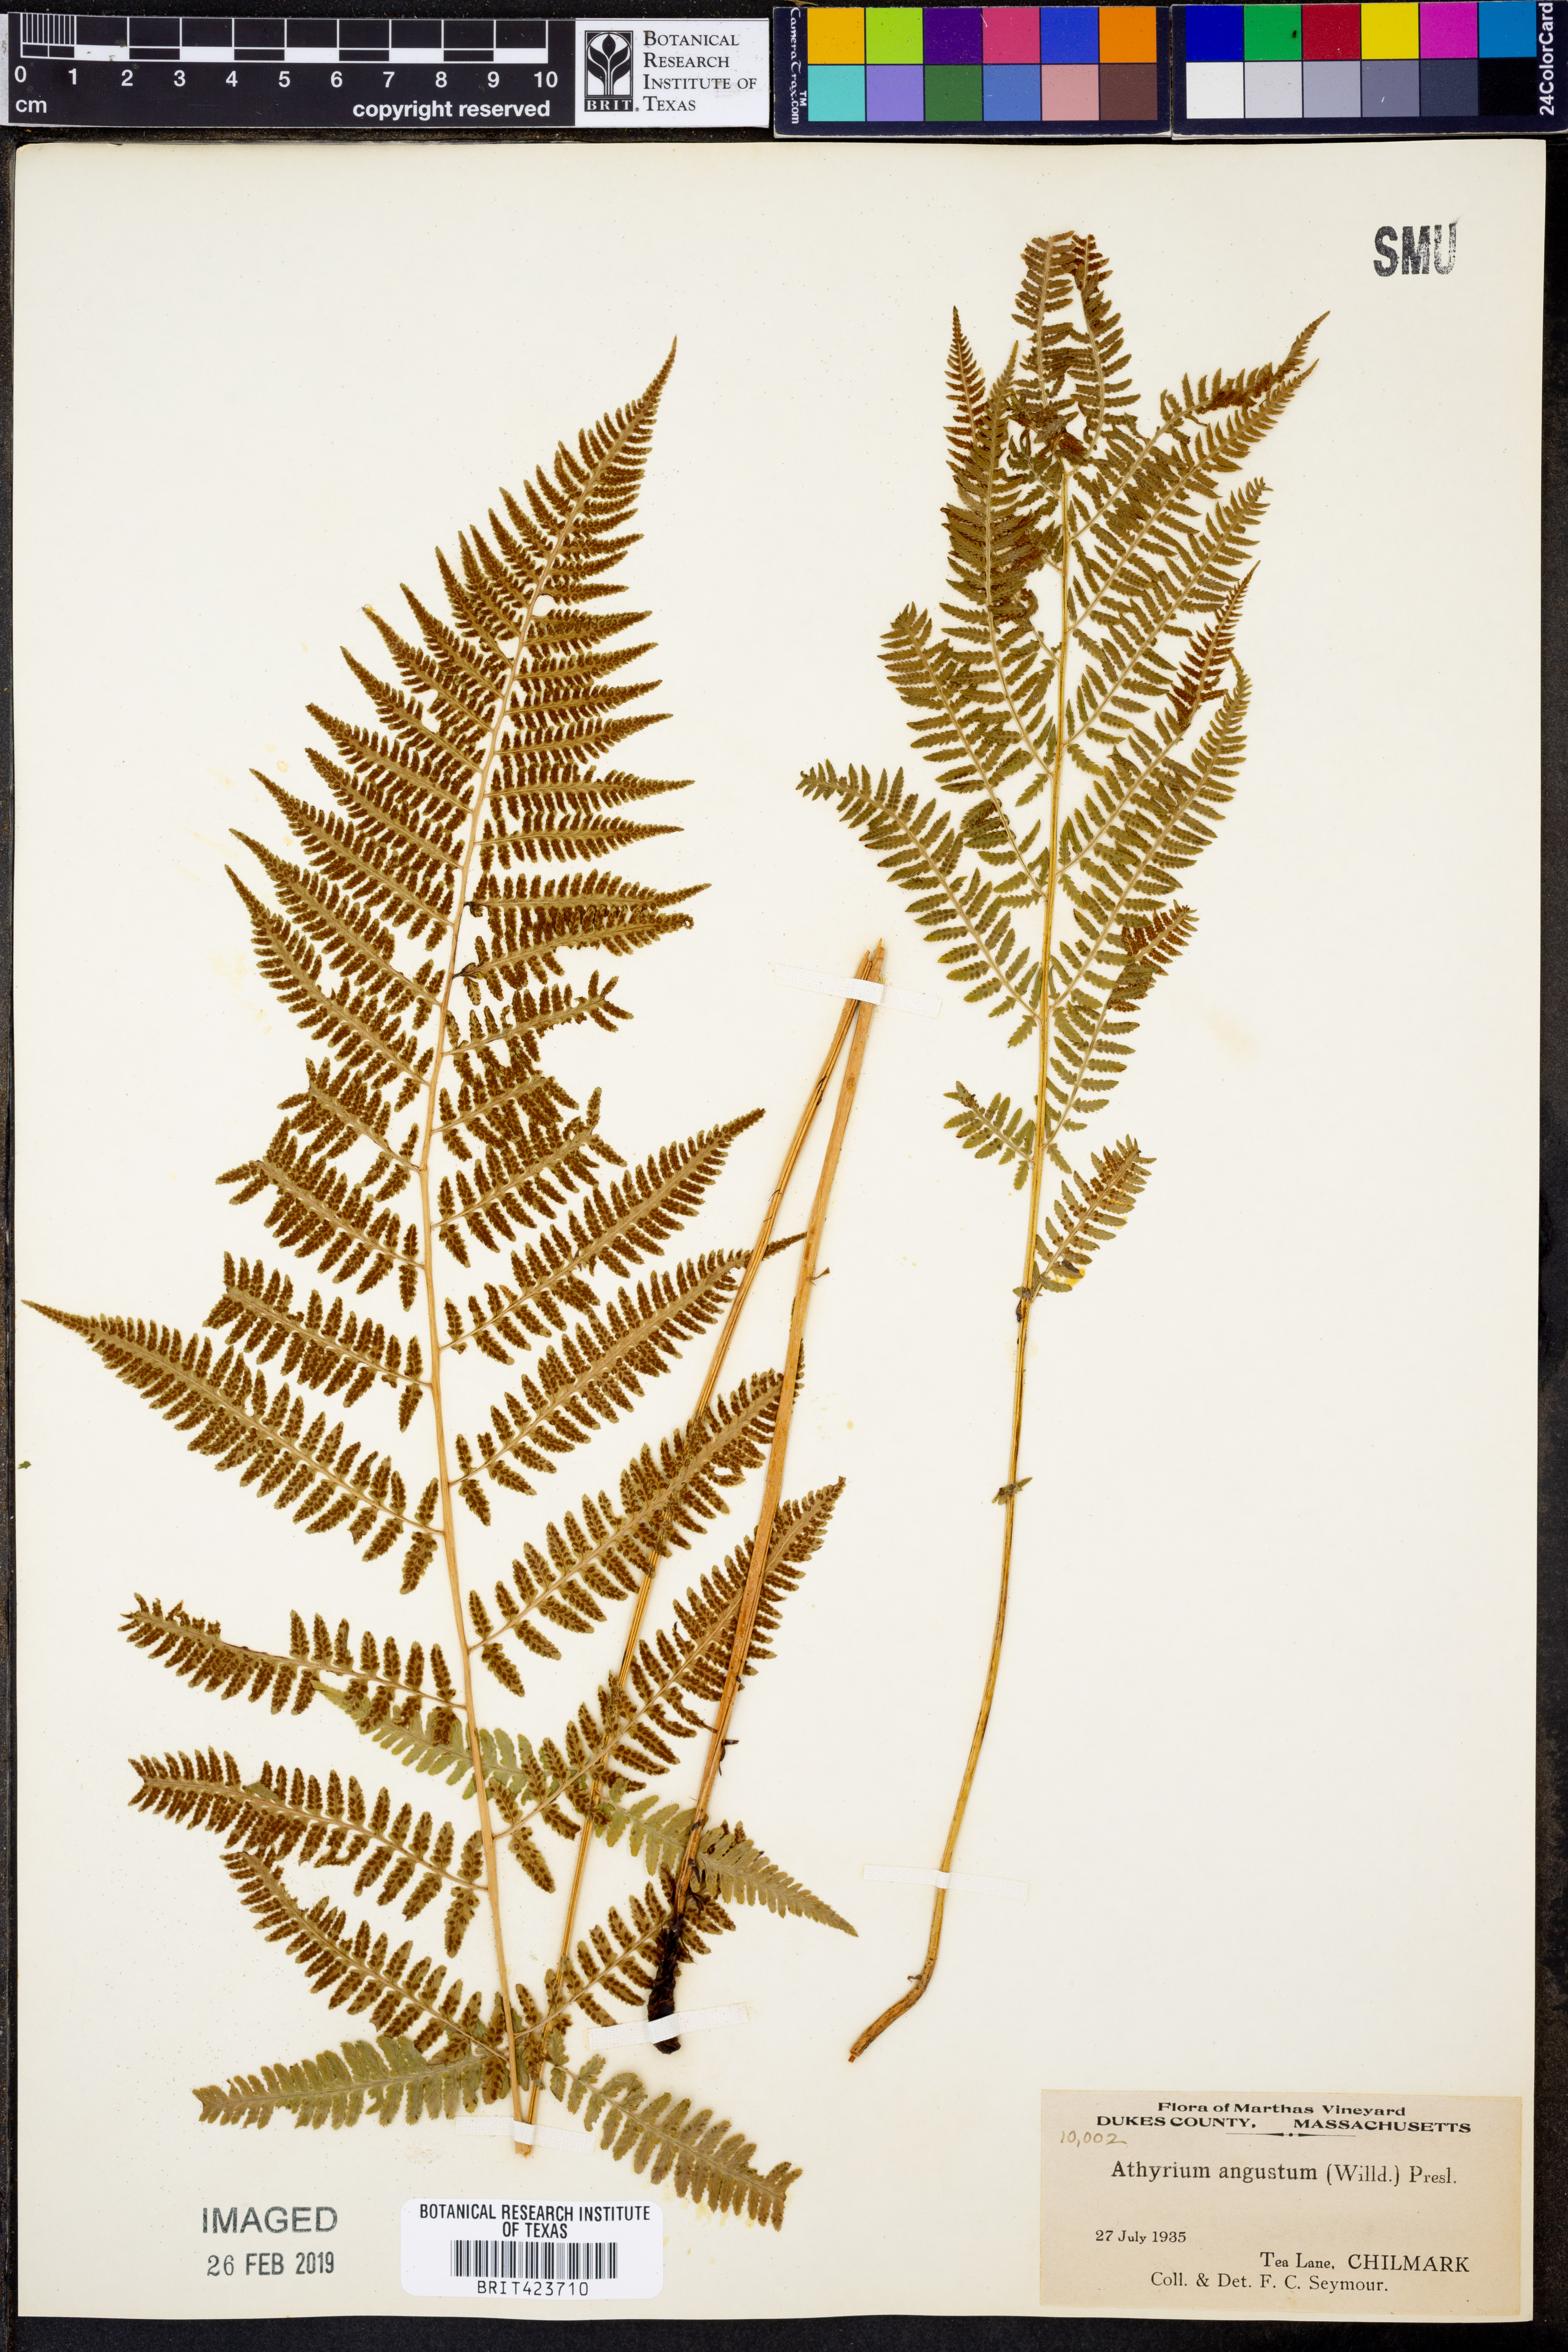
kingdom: Plantae
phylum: Tracheophyta
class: Polypodiopsida
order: Polypodiales
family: Athyriaceae
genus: Athyrium
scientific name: Athyrium angustum
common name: Northern lady fern
